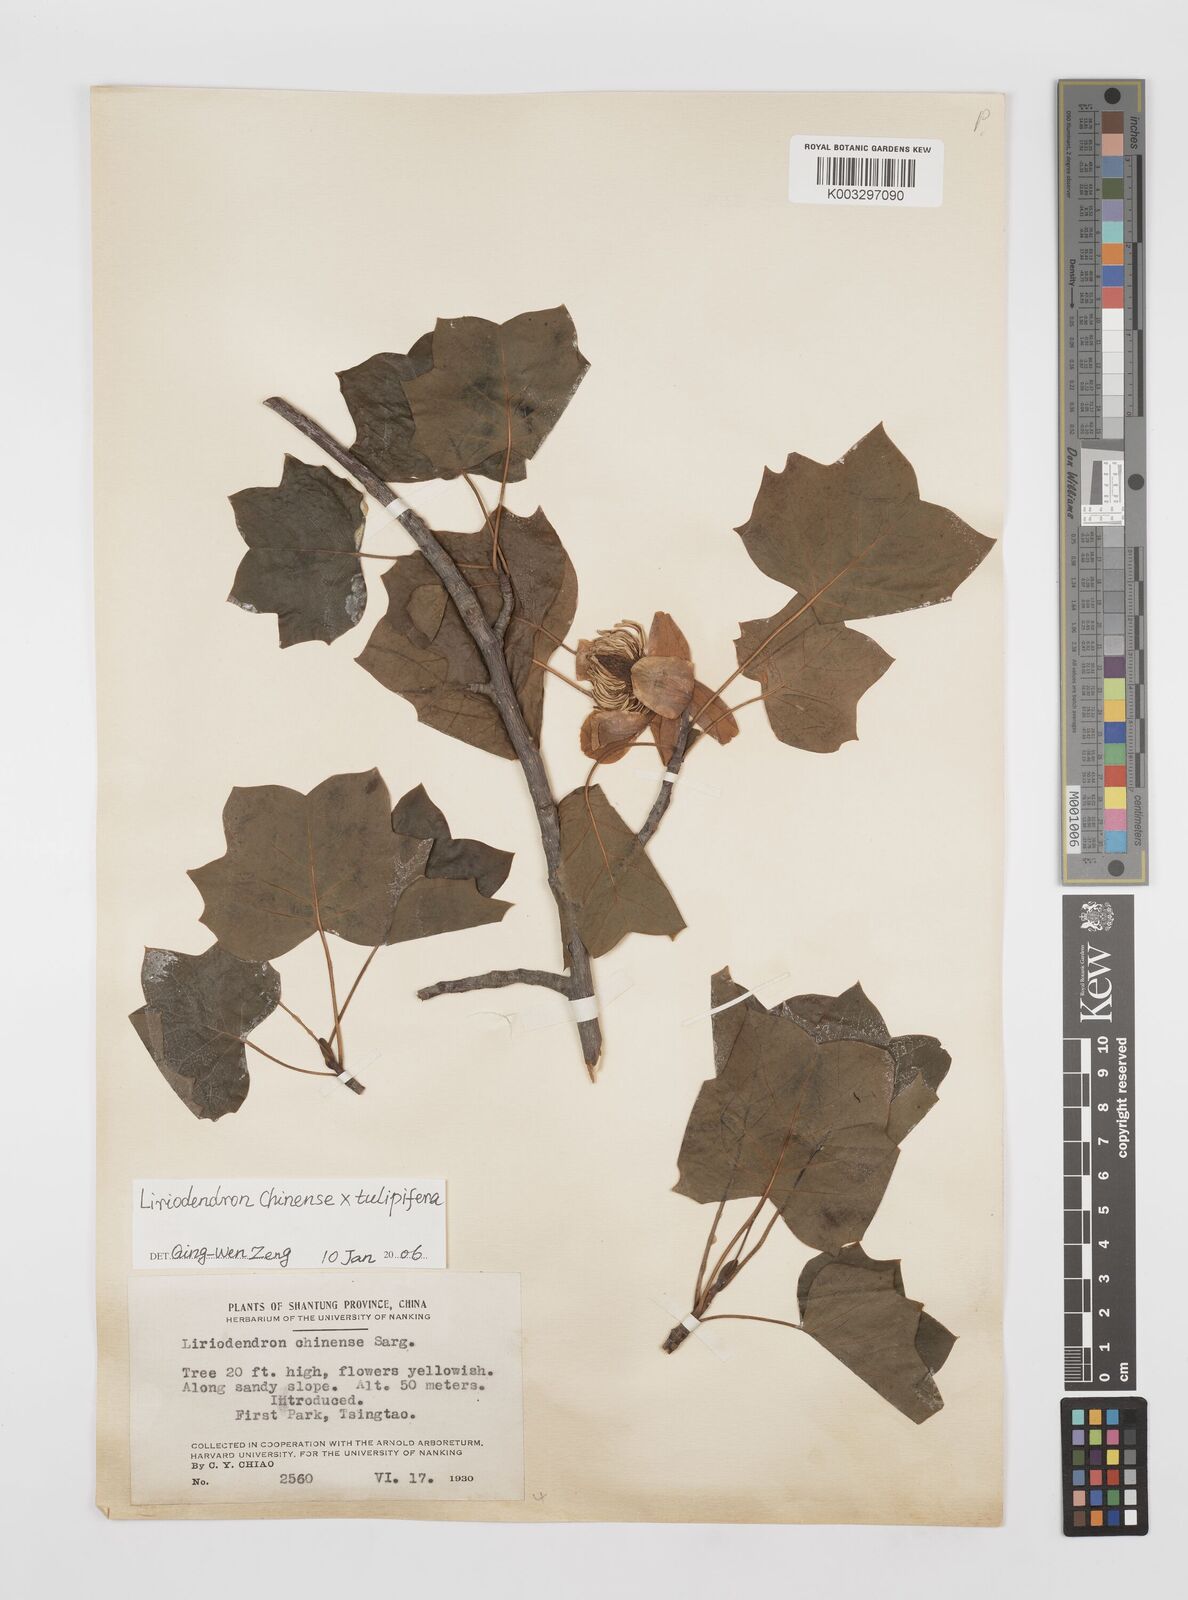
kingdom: Plantae
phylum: Tracheophyta
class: Magnoliopsida
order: Magnoliales
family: Magnoliaceae
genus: Liriodendron
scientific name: Liriodendron chinense
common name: Chinese tuliptree
